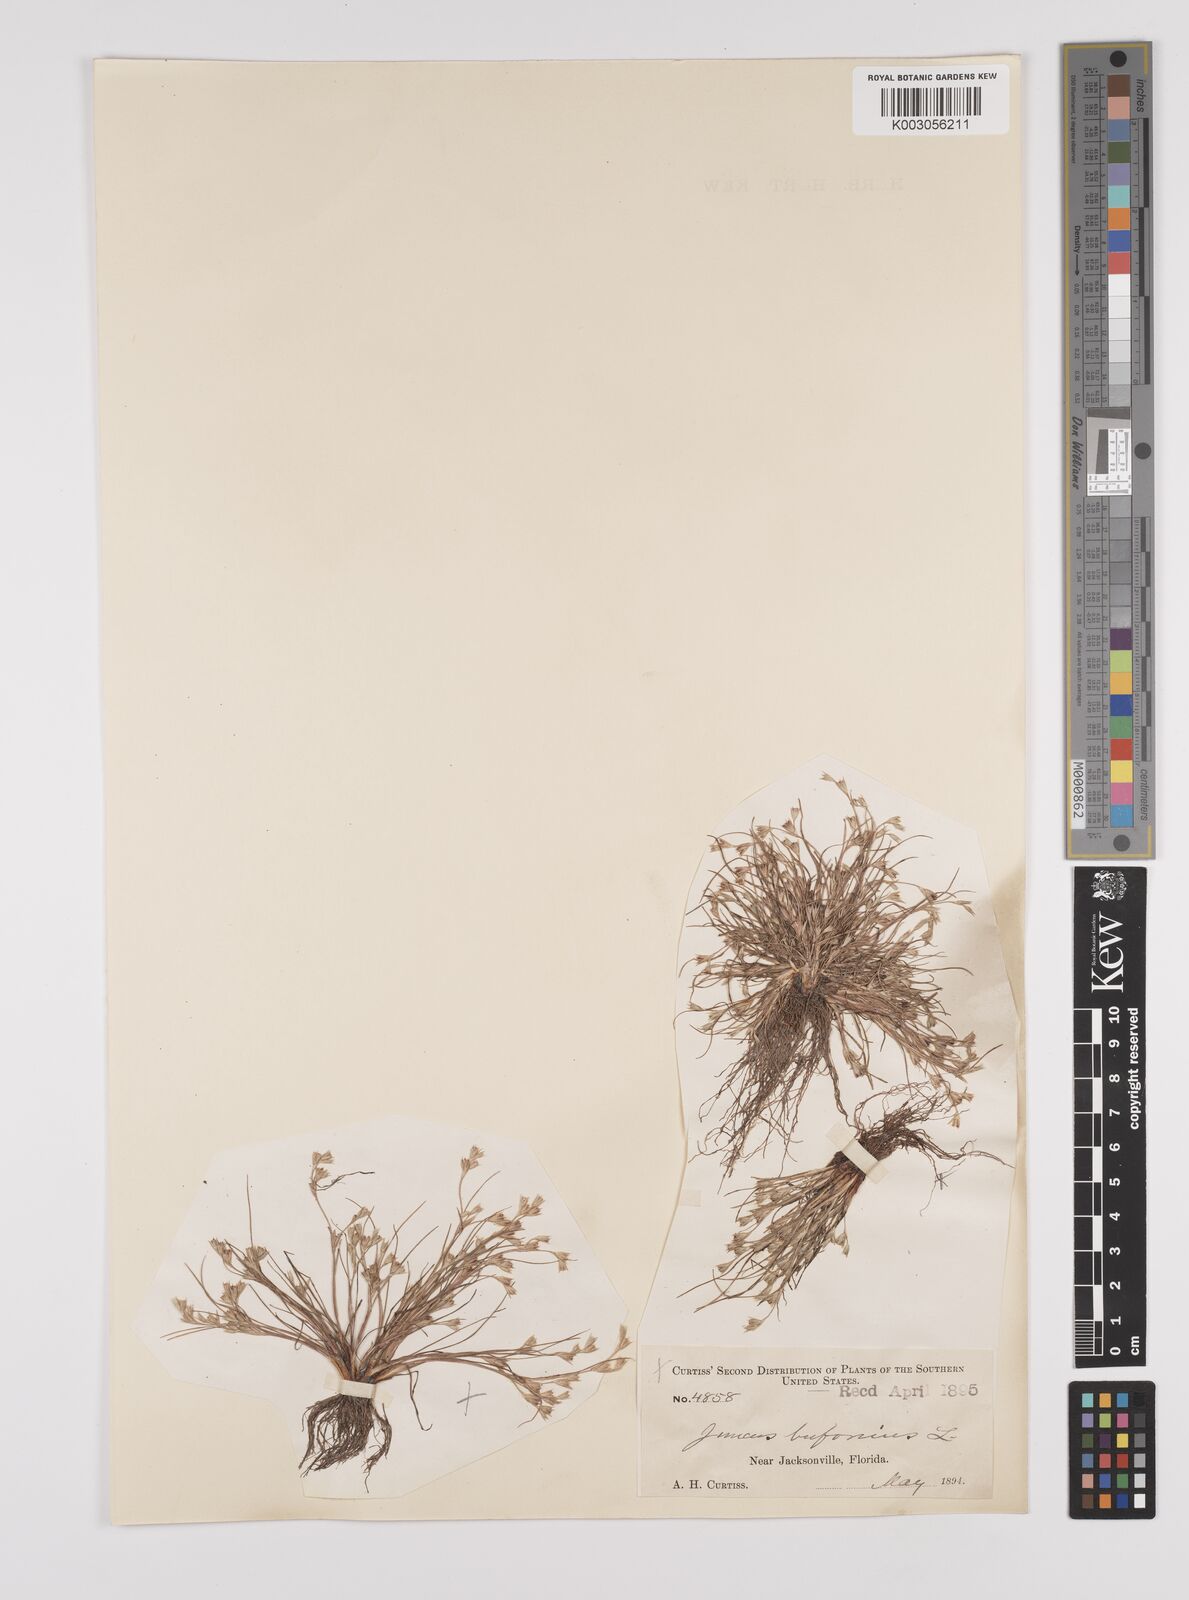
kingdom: Plantae
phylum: Tracheophyta
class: Liliopsida
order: Poales
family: Juncaceae
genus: Juncus
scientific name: Juncus bufonius
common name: Toad rush
